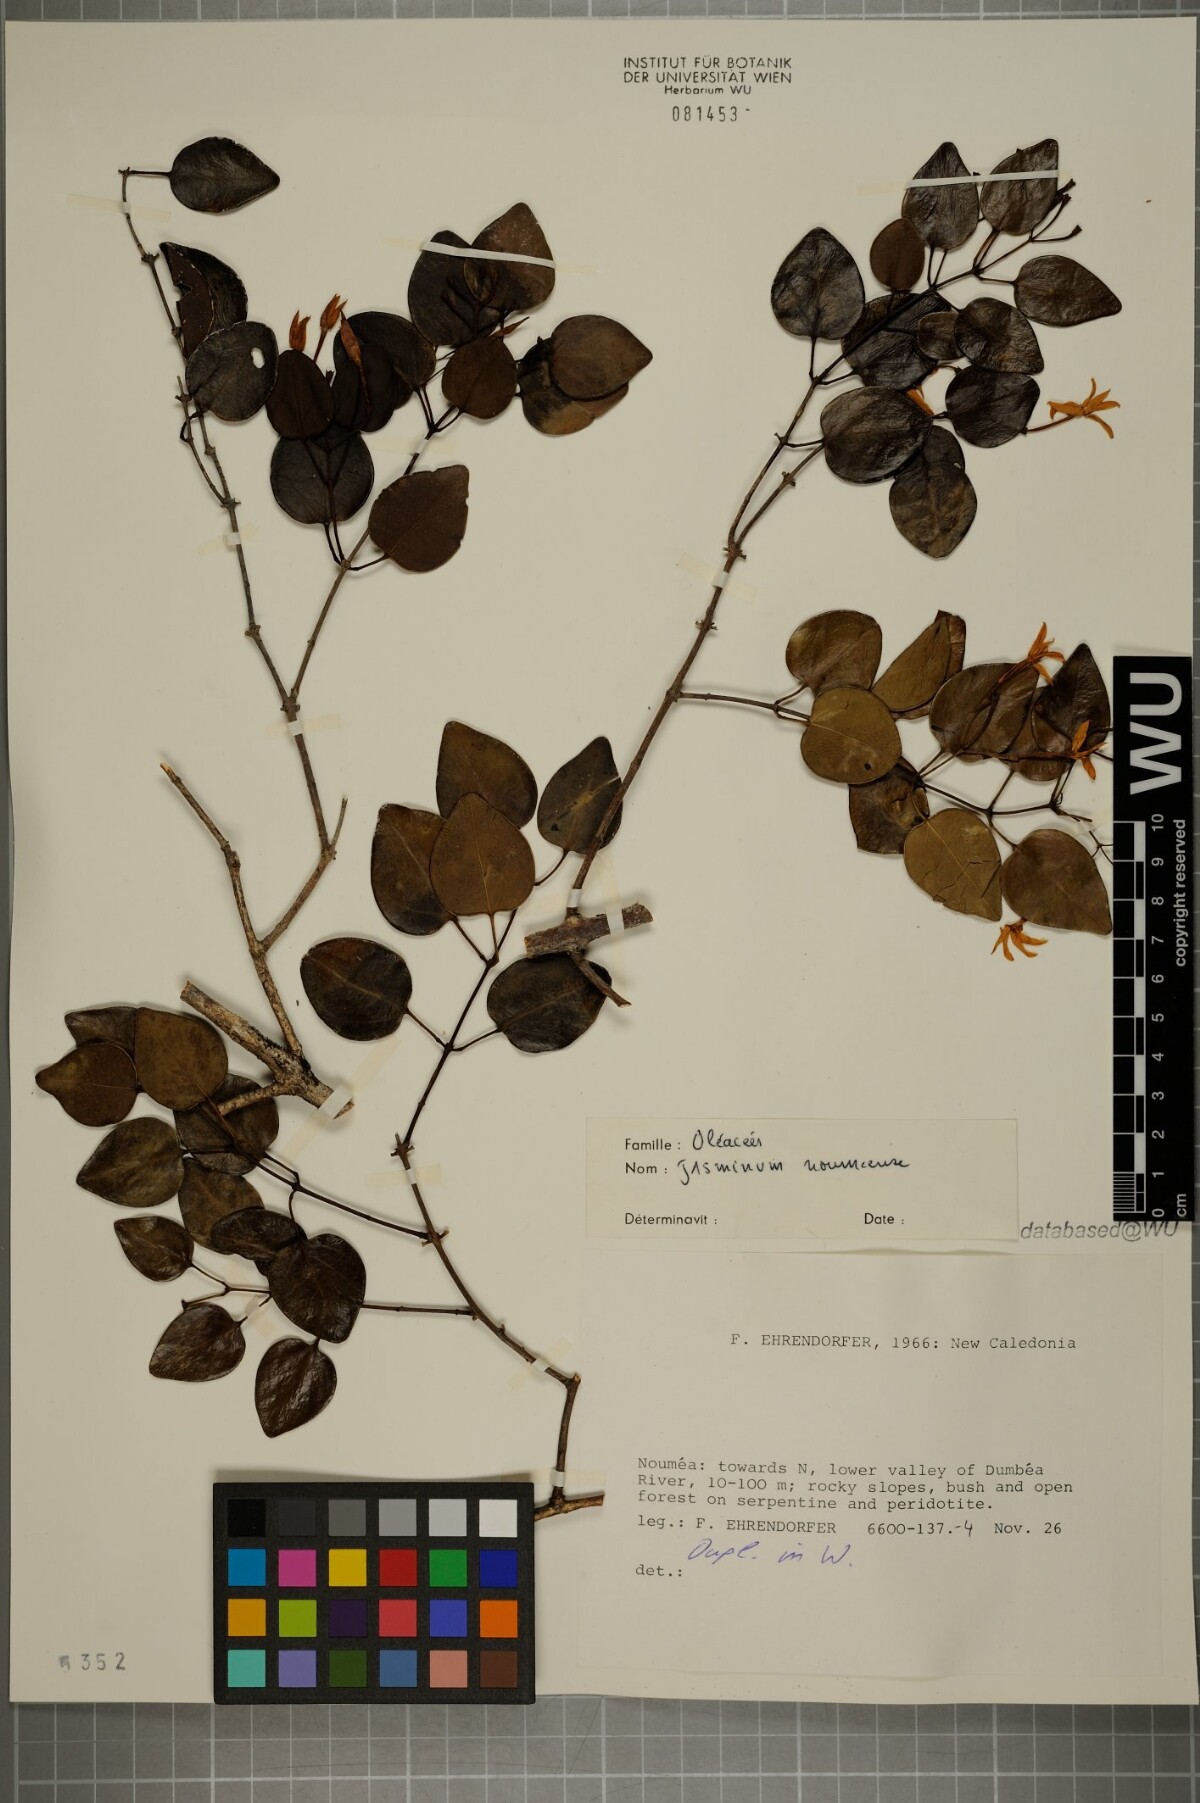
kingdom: Plantae
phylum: Tracheophyta
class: Magnoliopsida
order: Lamiales
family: Oleaceae
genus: Jasminum
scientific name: Jasminum noumeense
